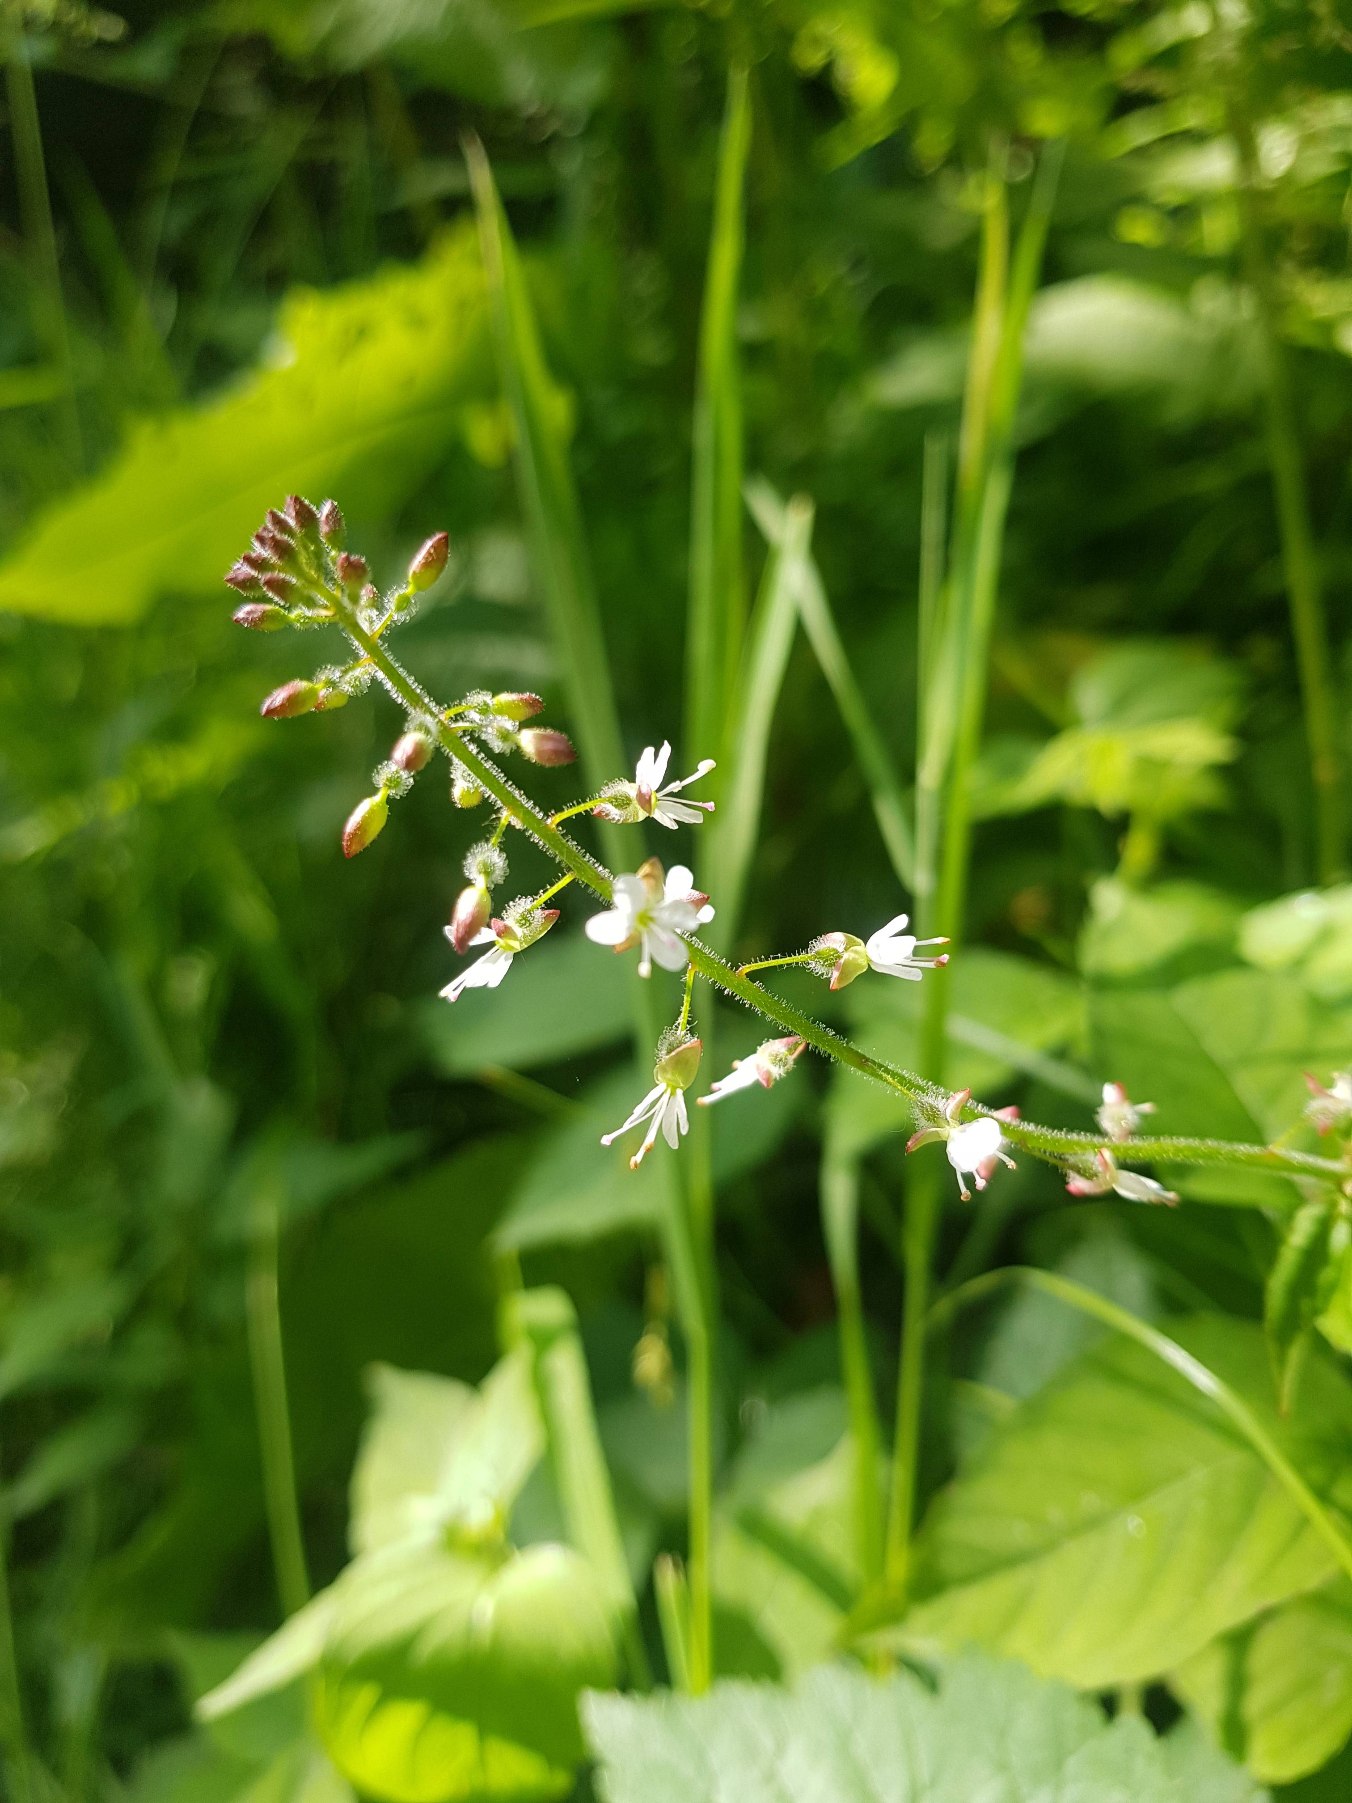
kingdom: Plantae
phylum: Tracheophyta
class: Magnoliopsida
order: Myrtales
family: Onagraceae
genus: Circaea
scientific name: Circaea lutetiana
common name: Dunet steffensurt
